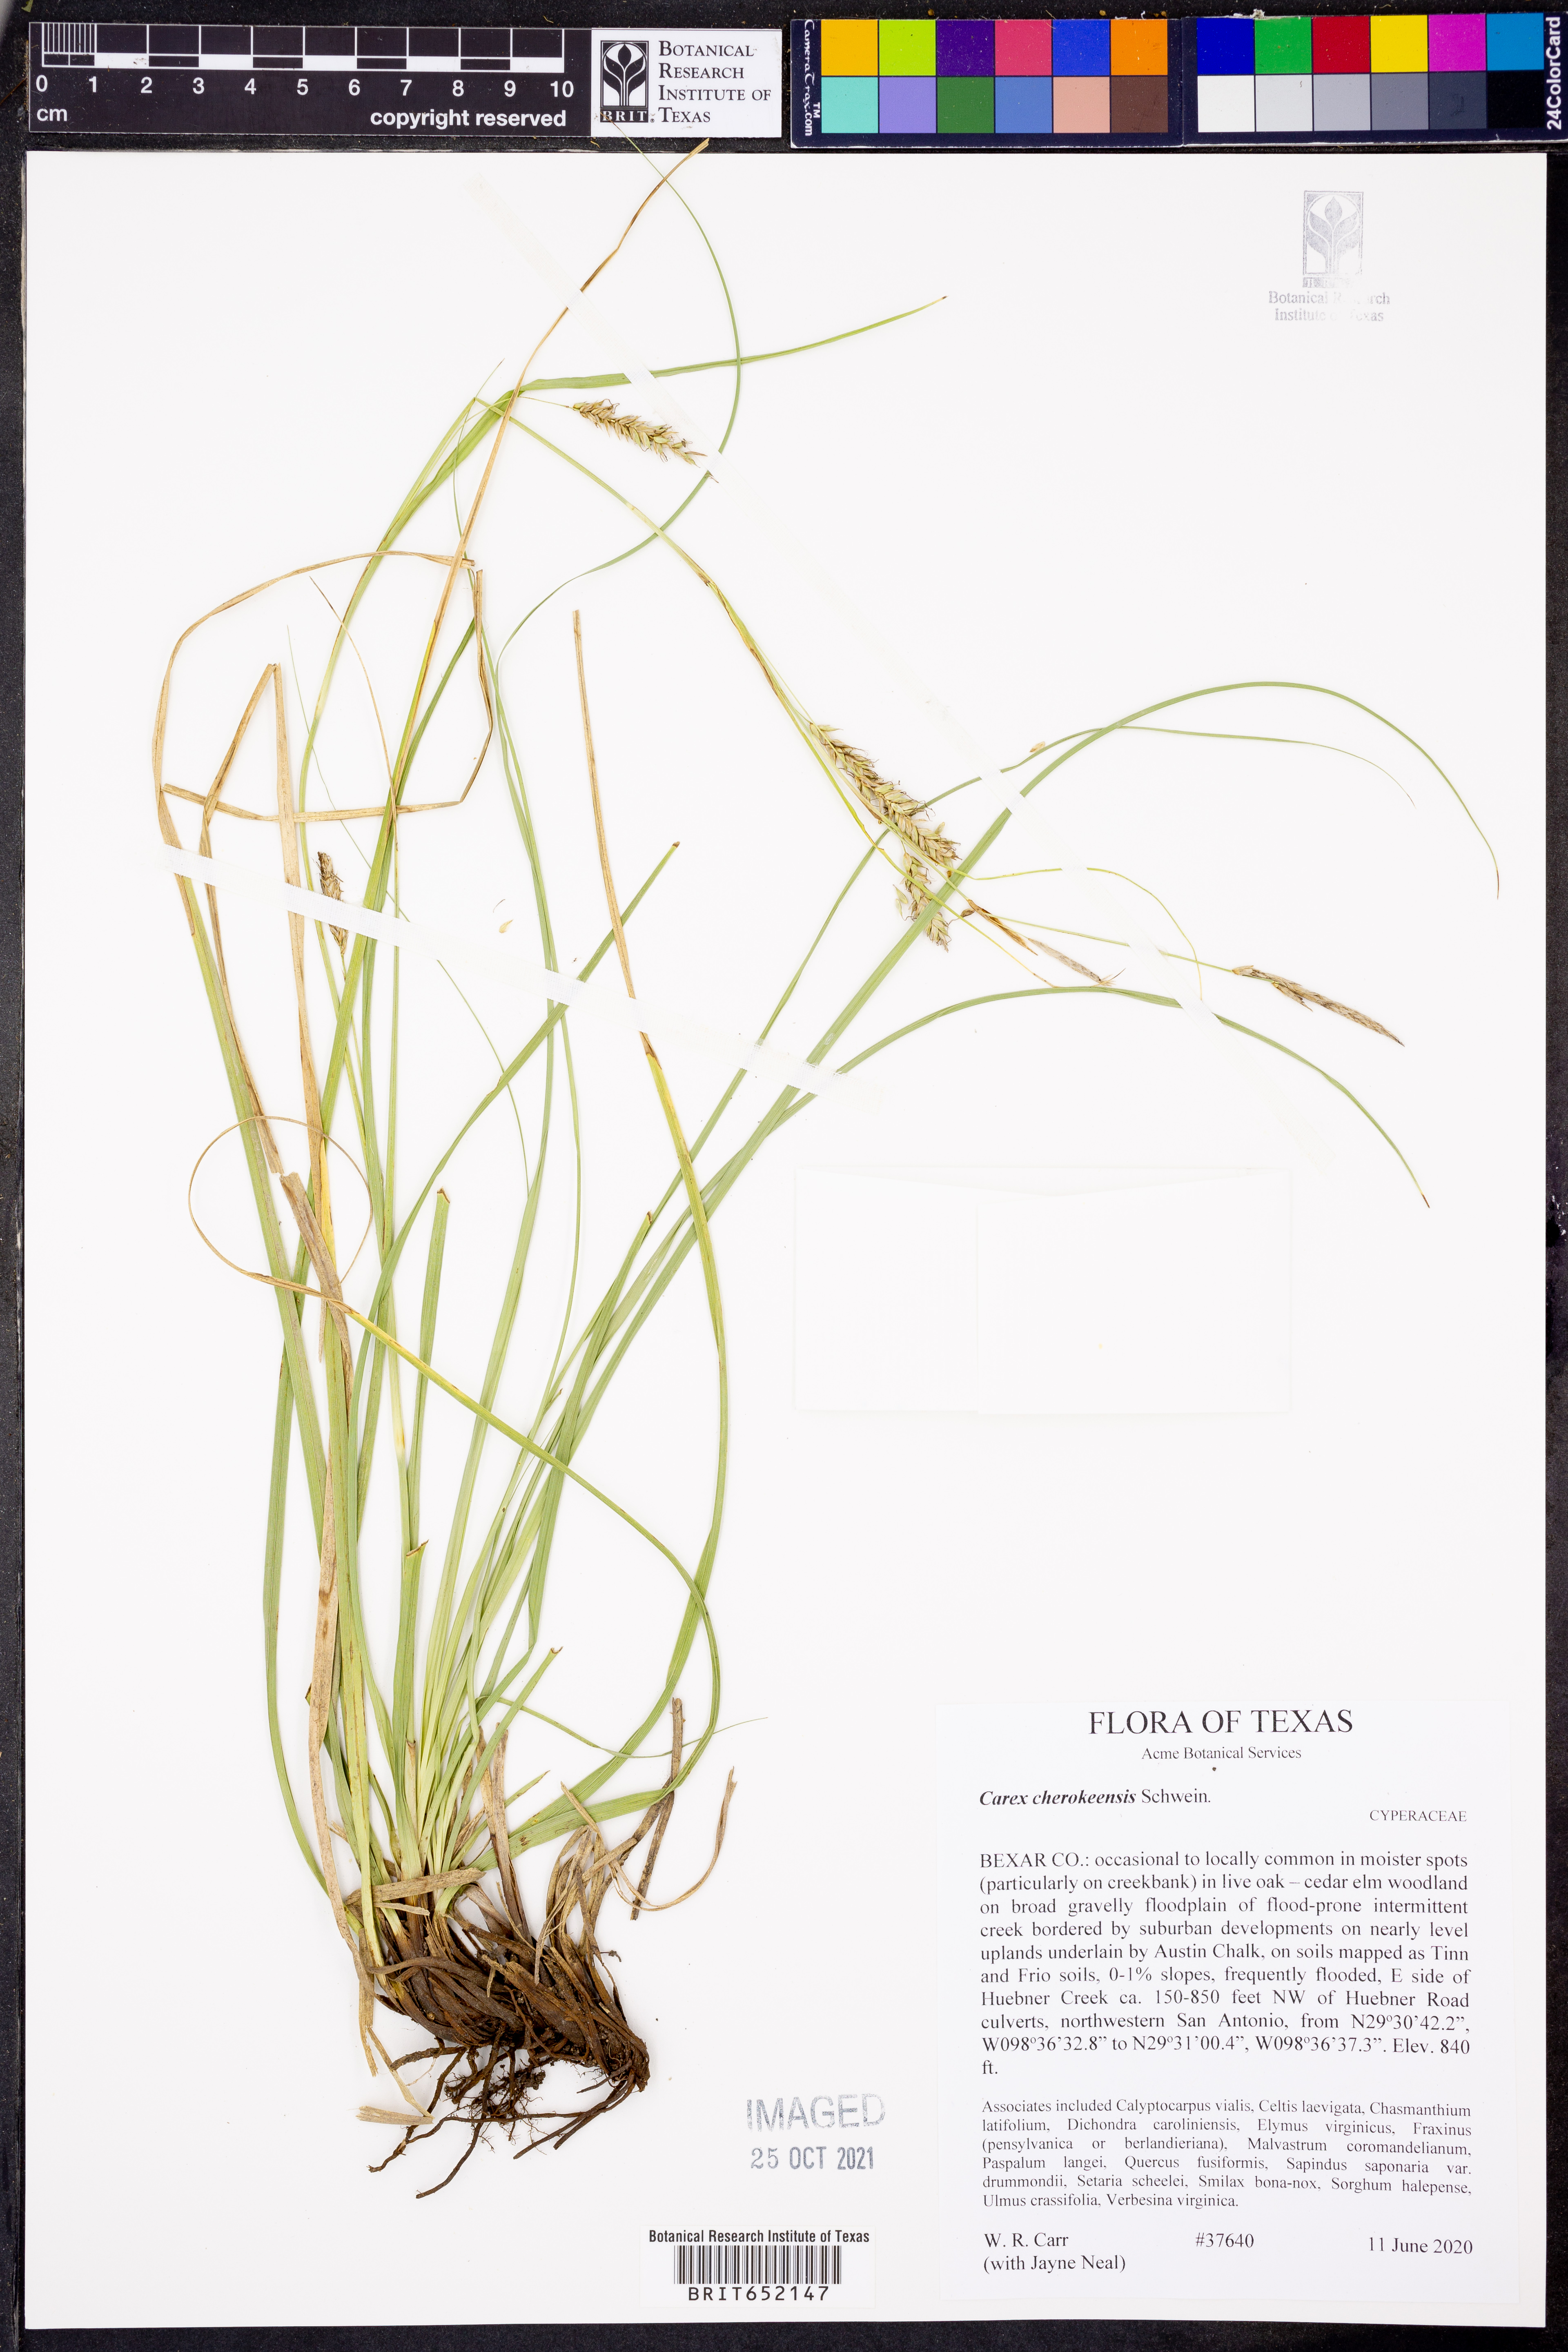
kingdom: Plantae
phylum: Tracheophyta
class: Liliopsida
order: Poales
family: Cyperaceae
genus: Carex
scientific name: Carex cherokeensis
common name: Cherokee sedge
